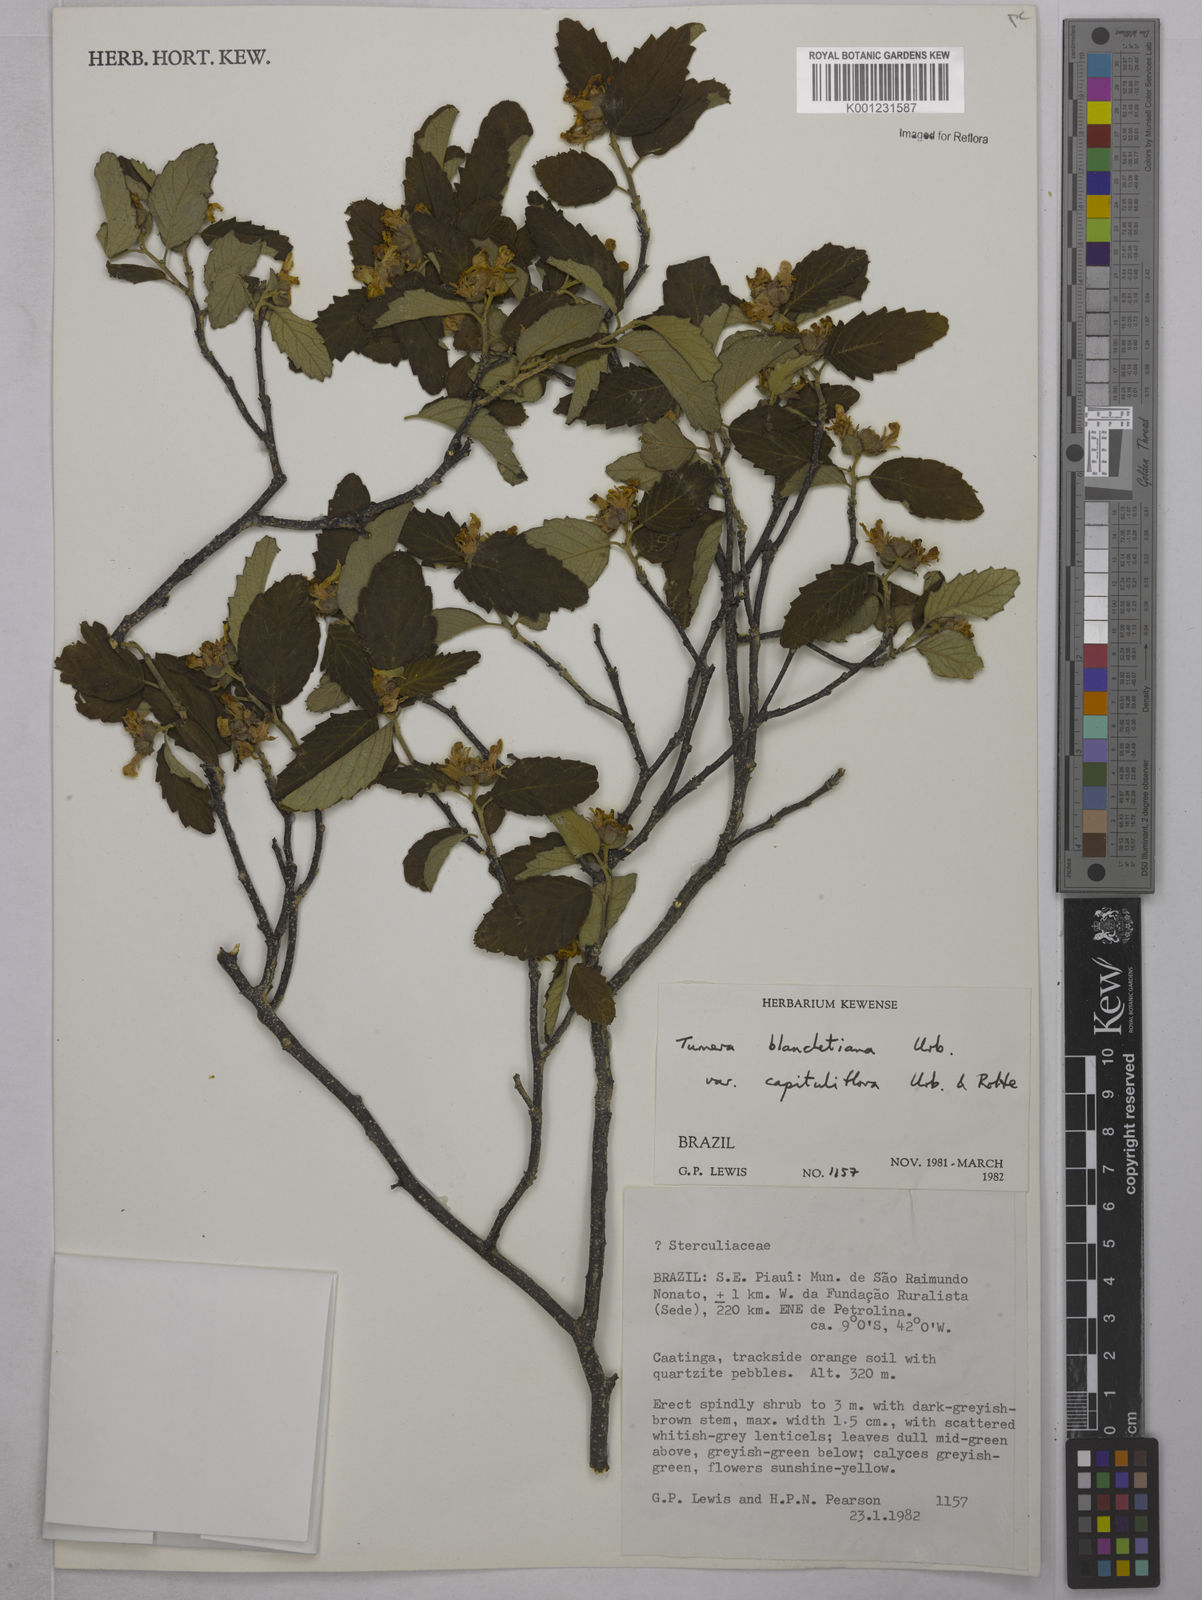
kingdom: Plantae
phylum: Tracheophyta
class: Magnoliopsida
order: Malpighiales
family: Turneraceae
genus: Turnera
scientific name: Turnera blanchetiana
